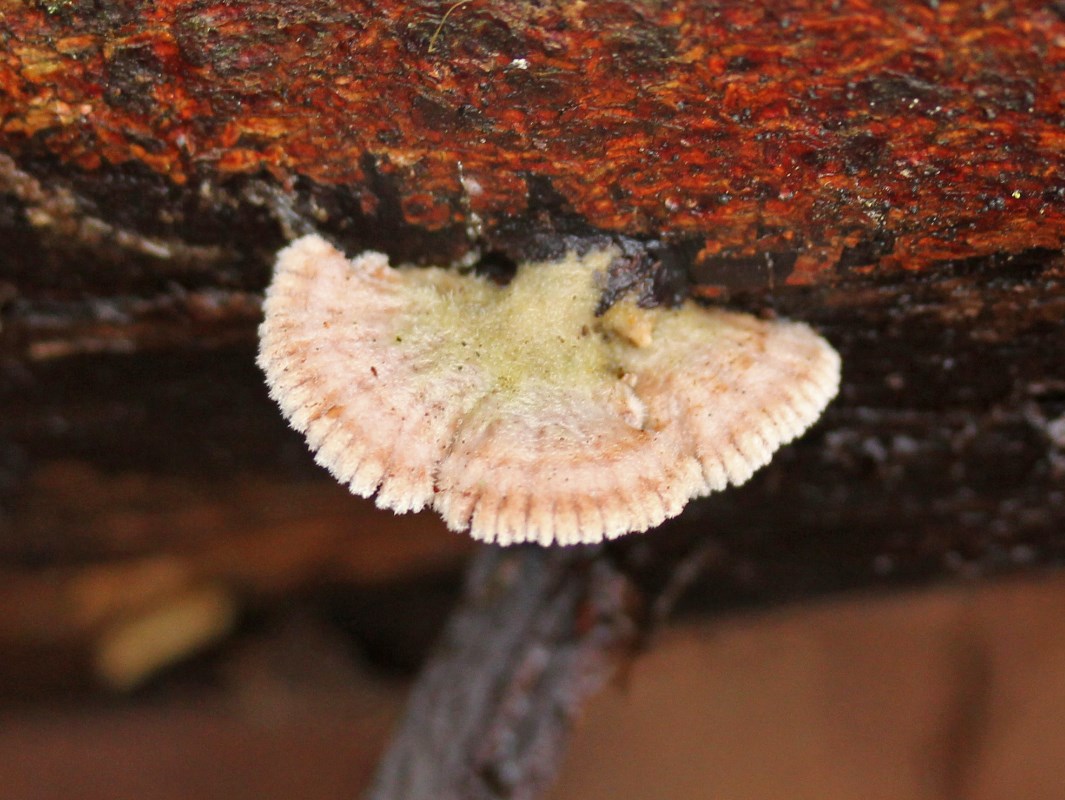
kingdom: Fungi
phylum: Basidiomycota
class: Agaricomycetes
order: Agaricales
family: Schizophyllaceae
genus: Schizophyllum
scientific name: Schizophyllum commune
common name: kløvblad
